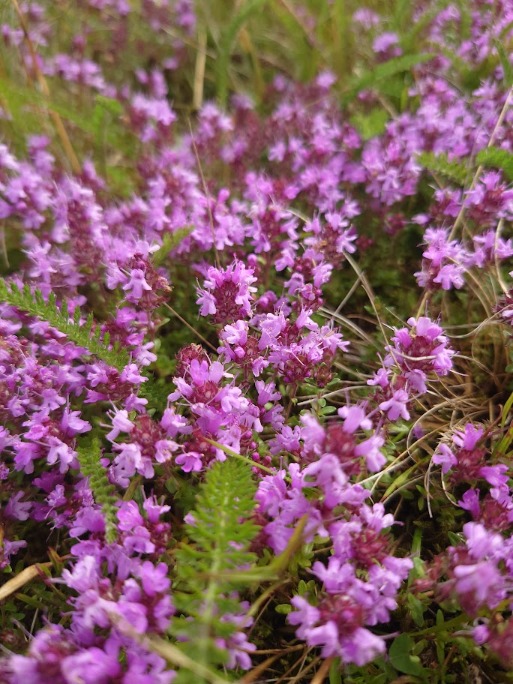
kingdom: Plantae
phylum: Tracheophyta
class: Magnoliopsida
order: Lamiales
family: Lamiaceae
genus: Thymus
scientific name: Thymus serpyllum
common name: Smalbladet timian
